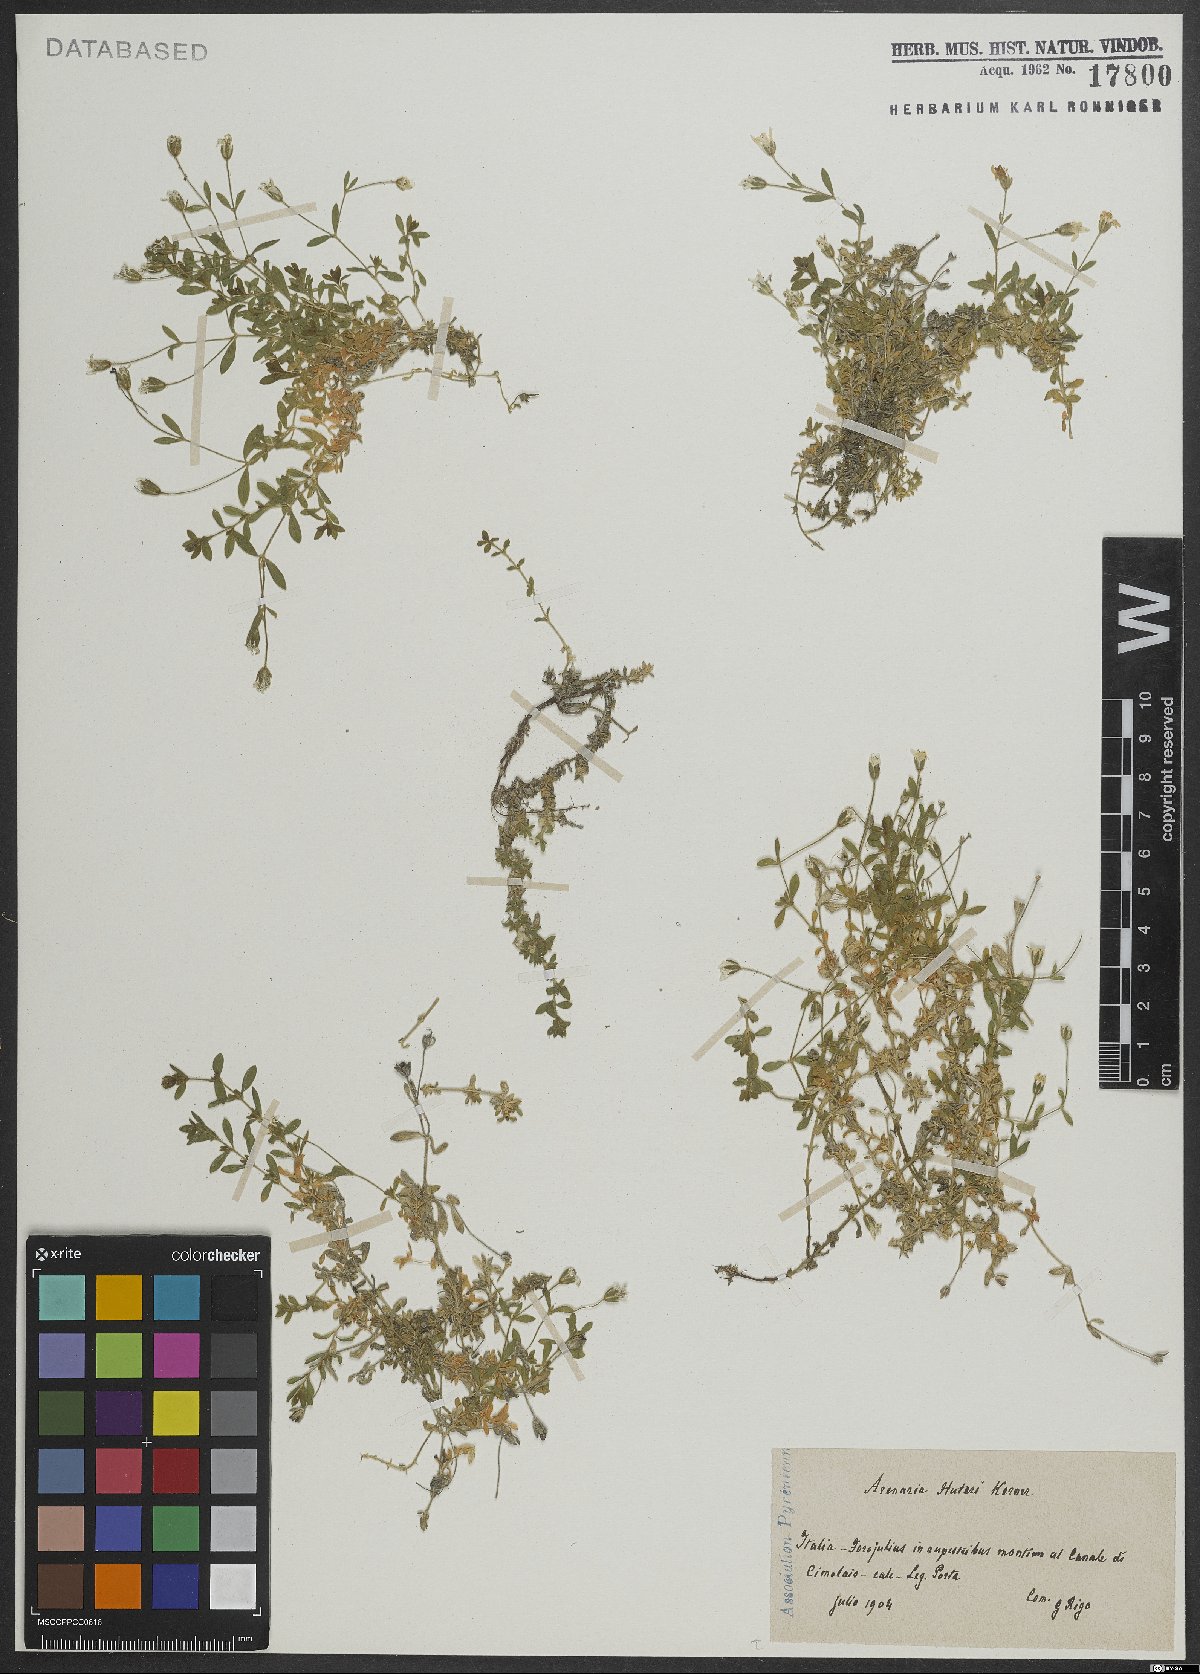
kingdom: Plantae
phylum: Tracheophyta
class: Magnoliopsida
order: Caryophyllales
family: Caryophyllaceae
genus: Arenaria
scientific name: Arenaria huteri
